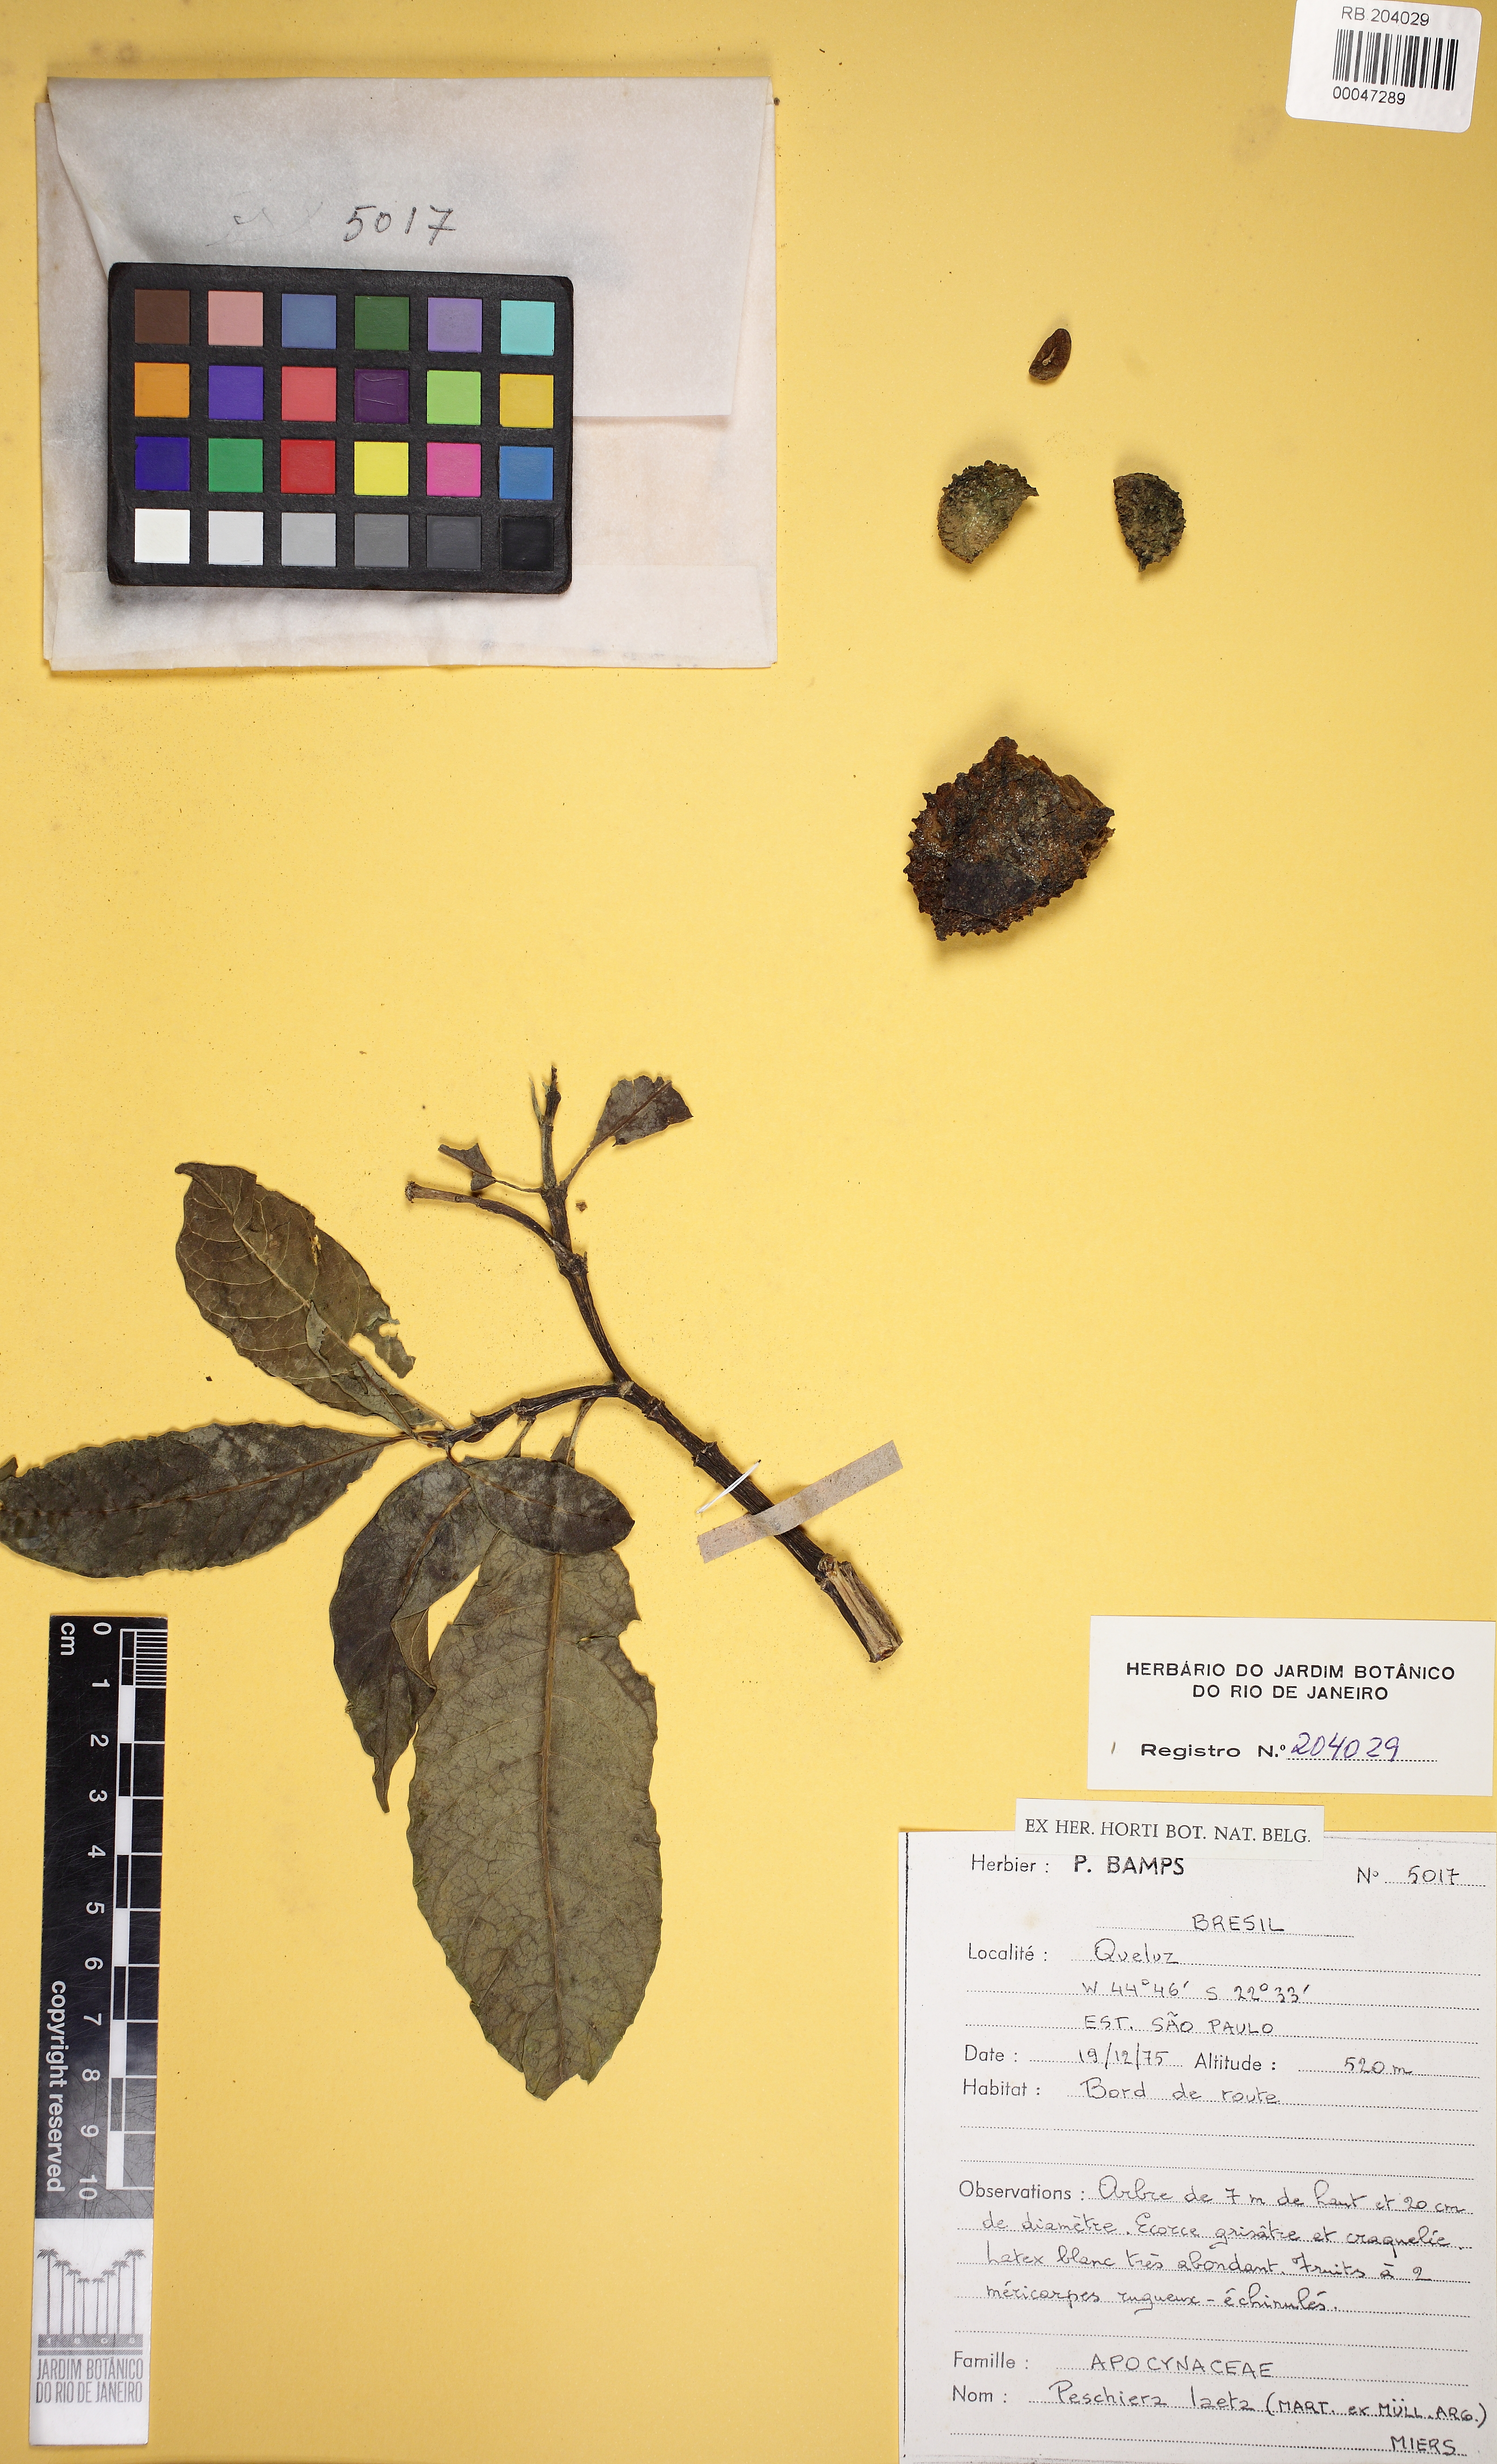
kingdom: Plantae
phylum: Tracheophyta
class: Magnoliopsida
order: Gentianales
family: Apocynaceae
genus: Tabernaemontana
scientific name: Tabernaemontana laeta
